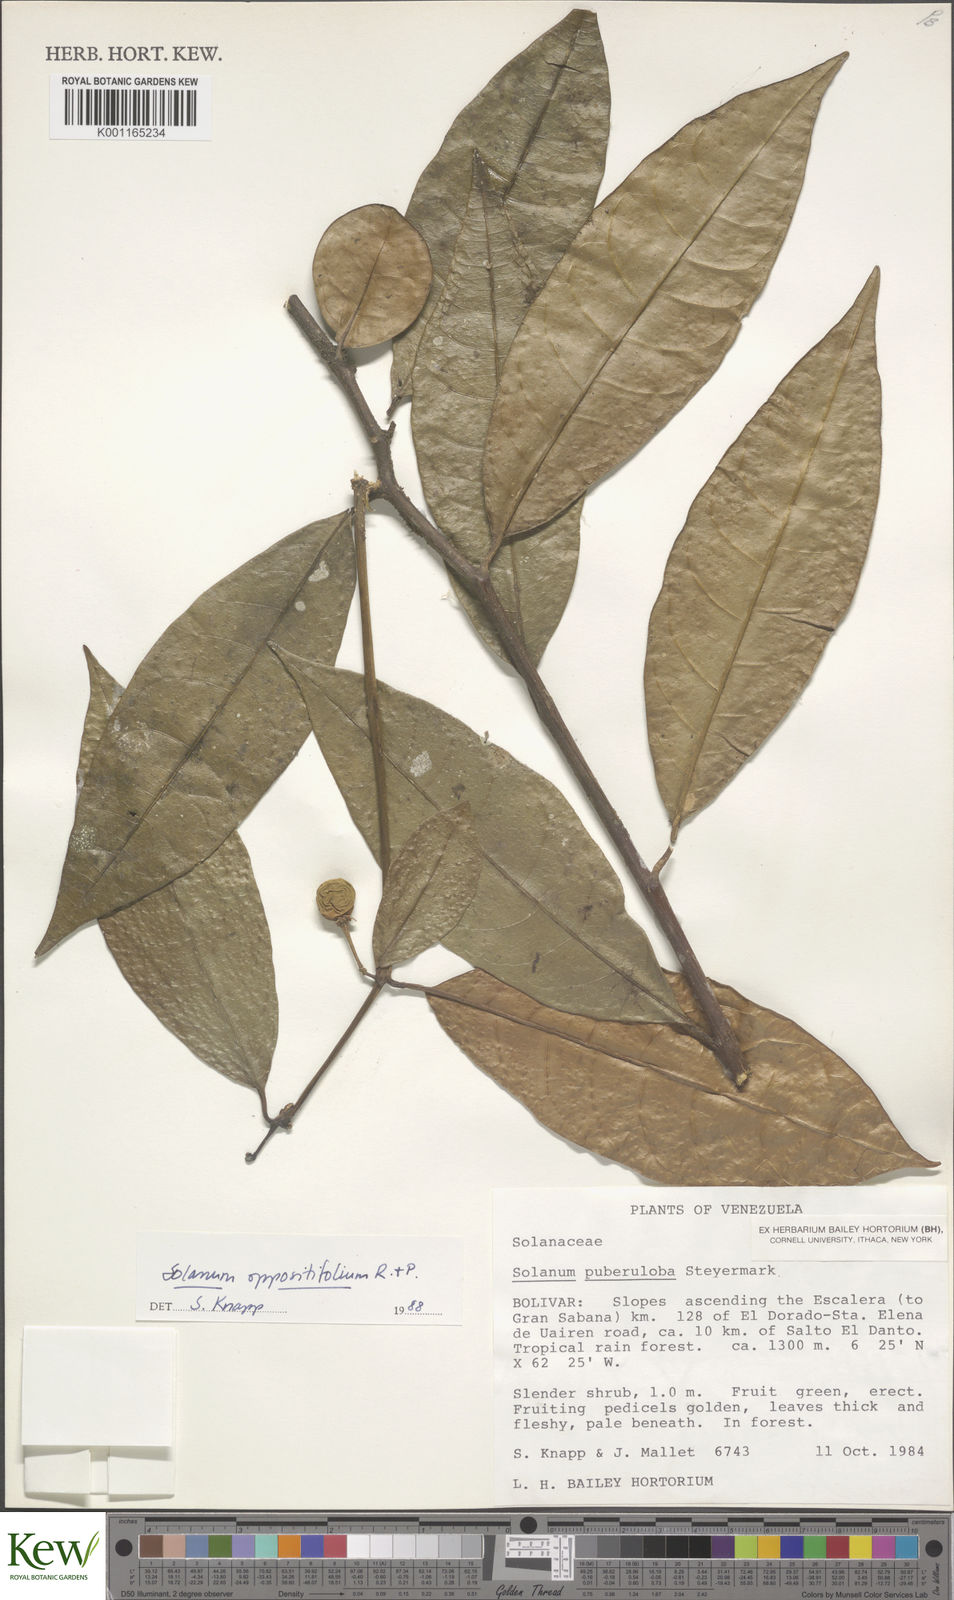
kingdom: Plantae
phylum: Tracheophyta
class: Magnoliopsida
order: Solanales
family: Solanaceae
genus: Solanum
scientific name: Solanum oppositifolium
